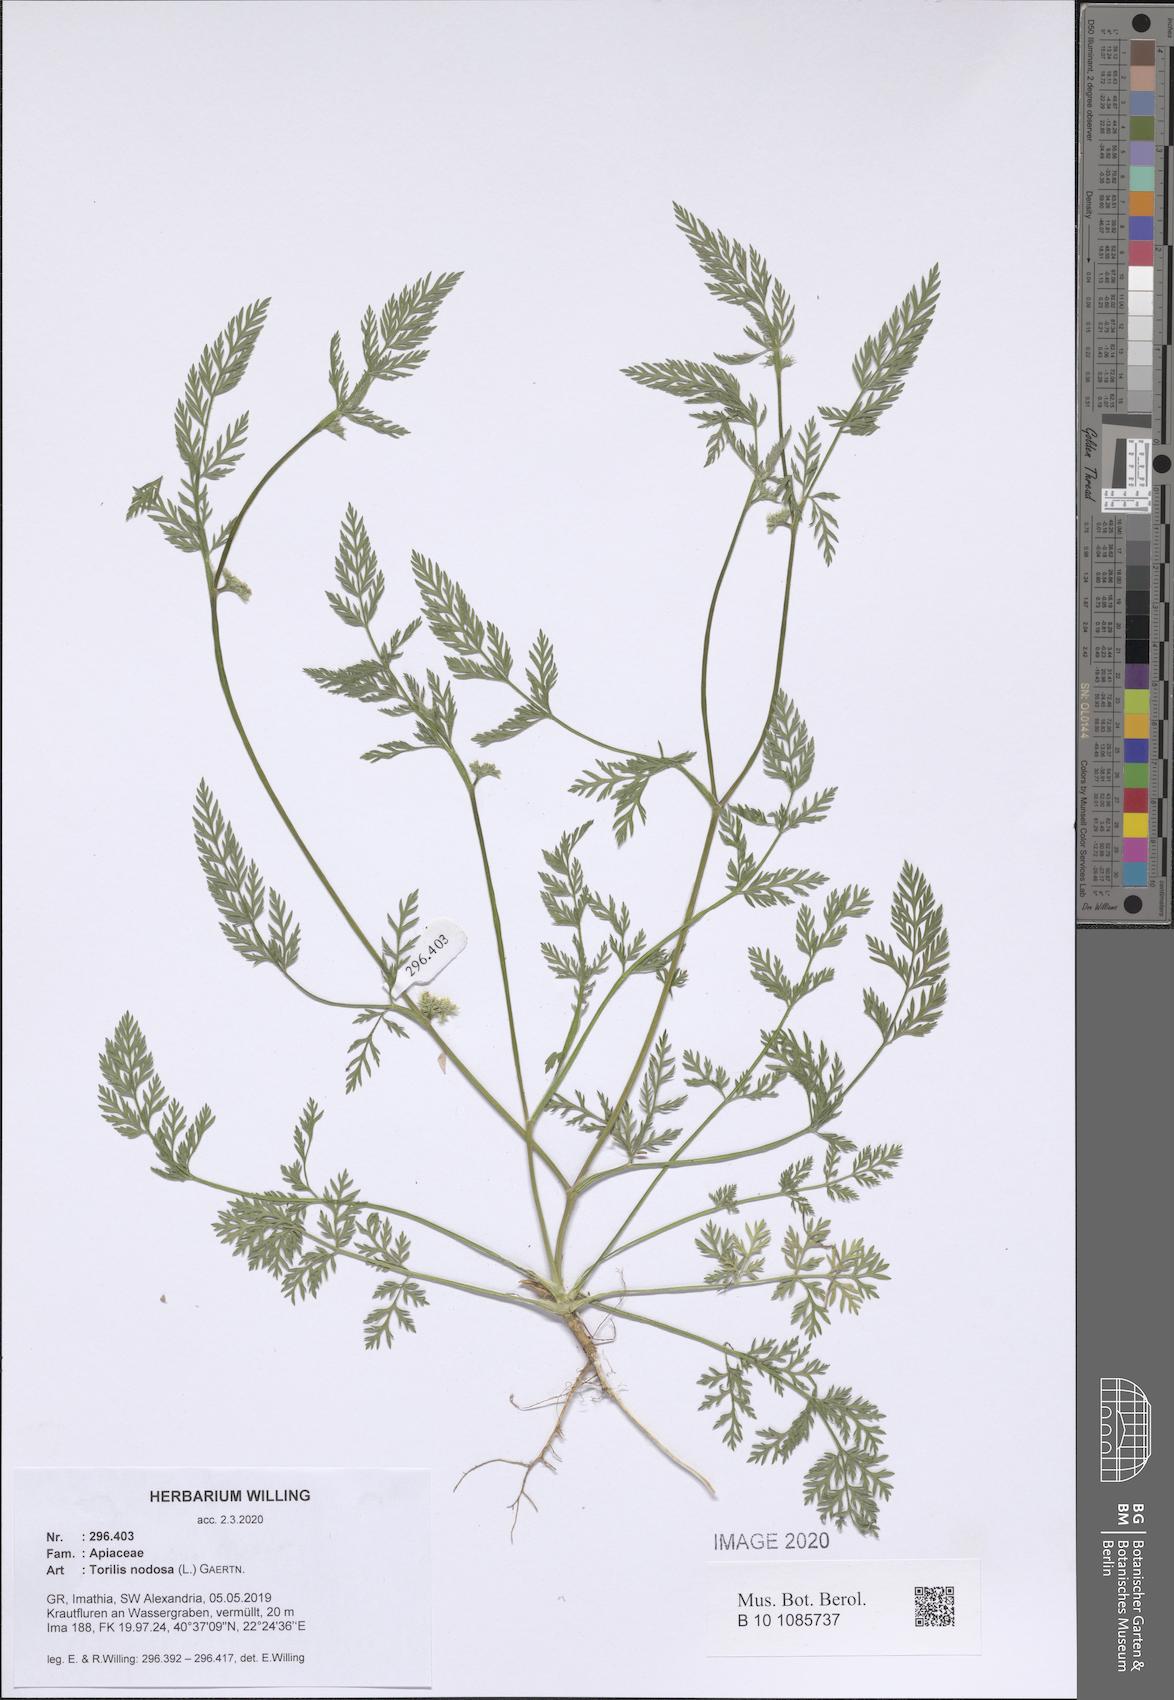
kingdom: Plantae
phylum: Tracheophyta
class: Magnoliopsida
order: Apiales
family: Apiaceae
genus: Torilis
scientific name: Torilis nodosa
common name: Knotted hedge-parsley
